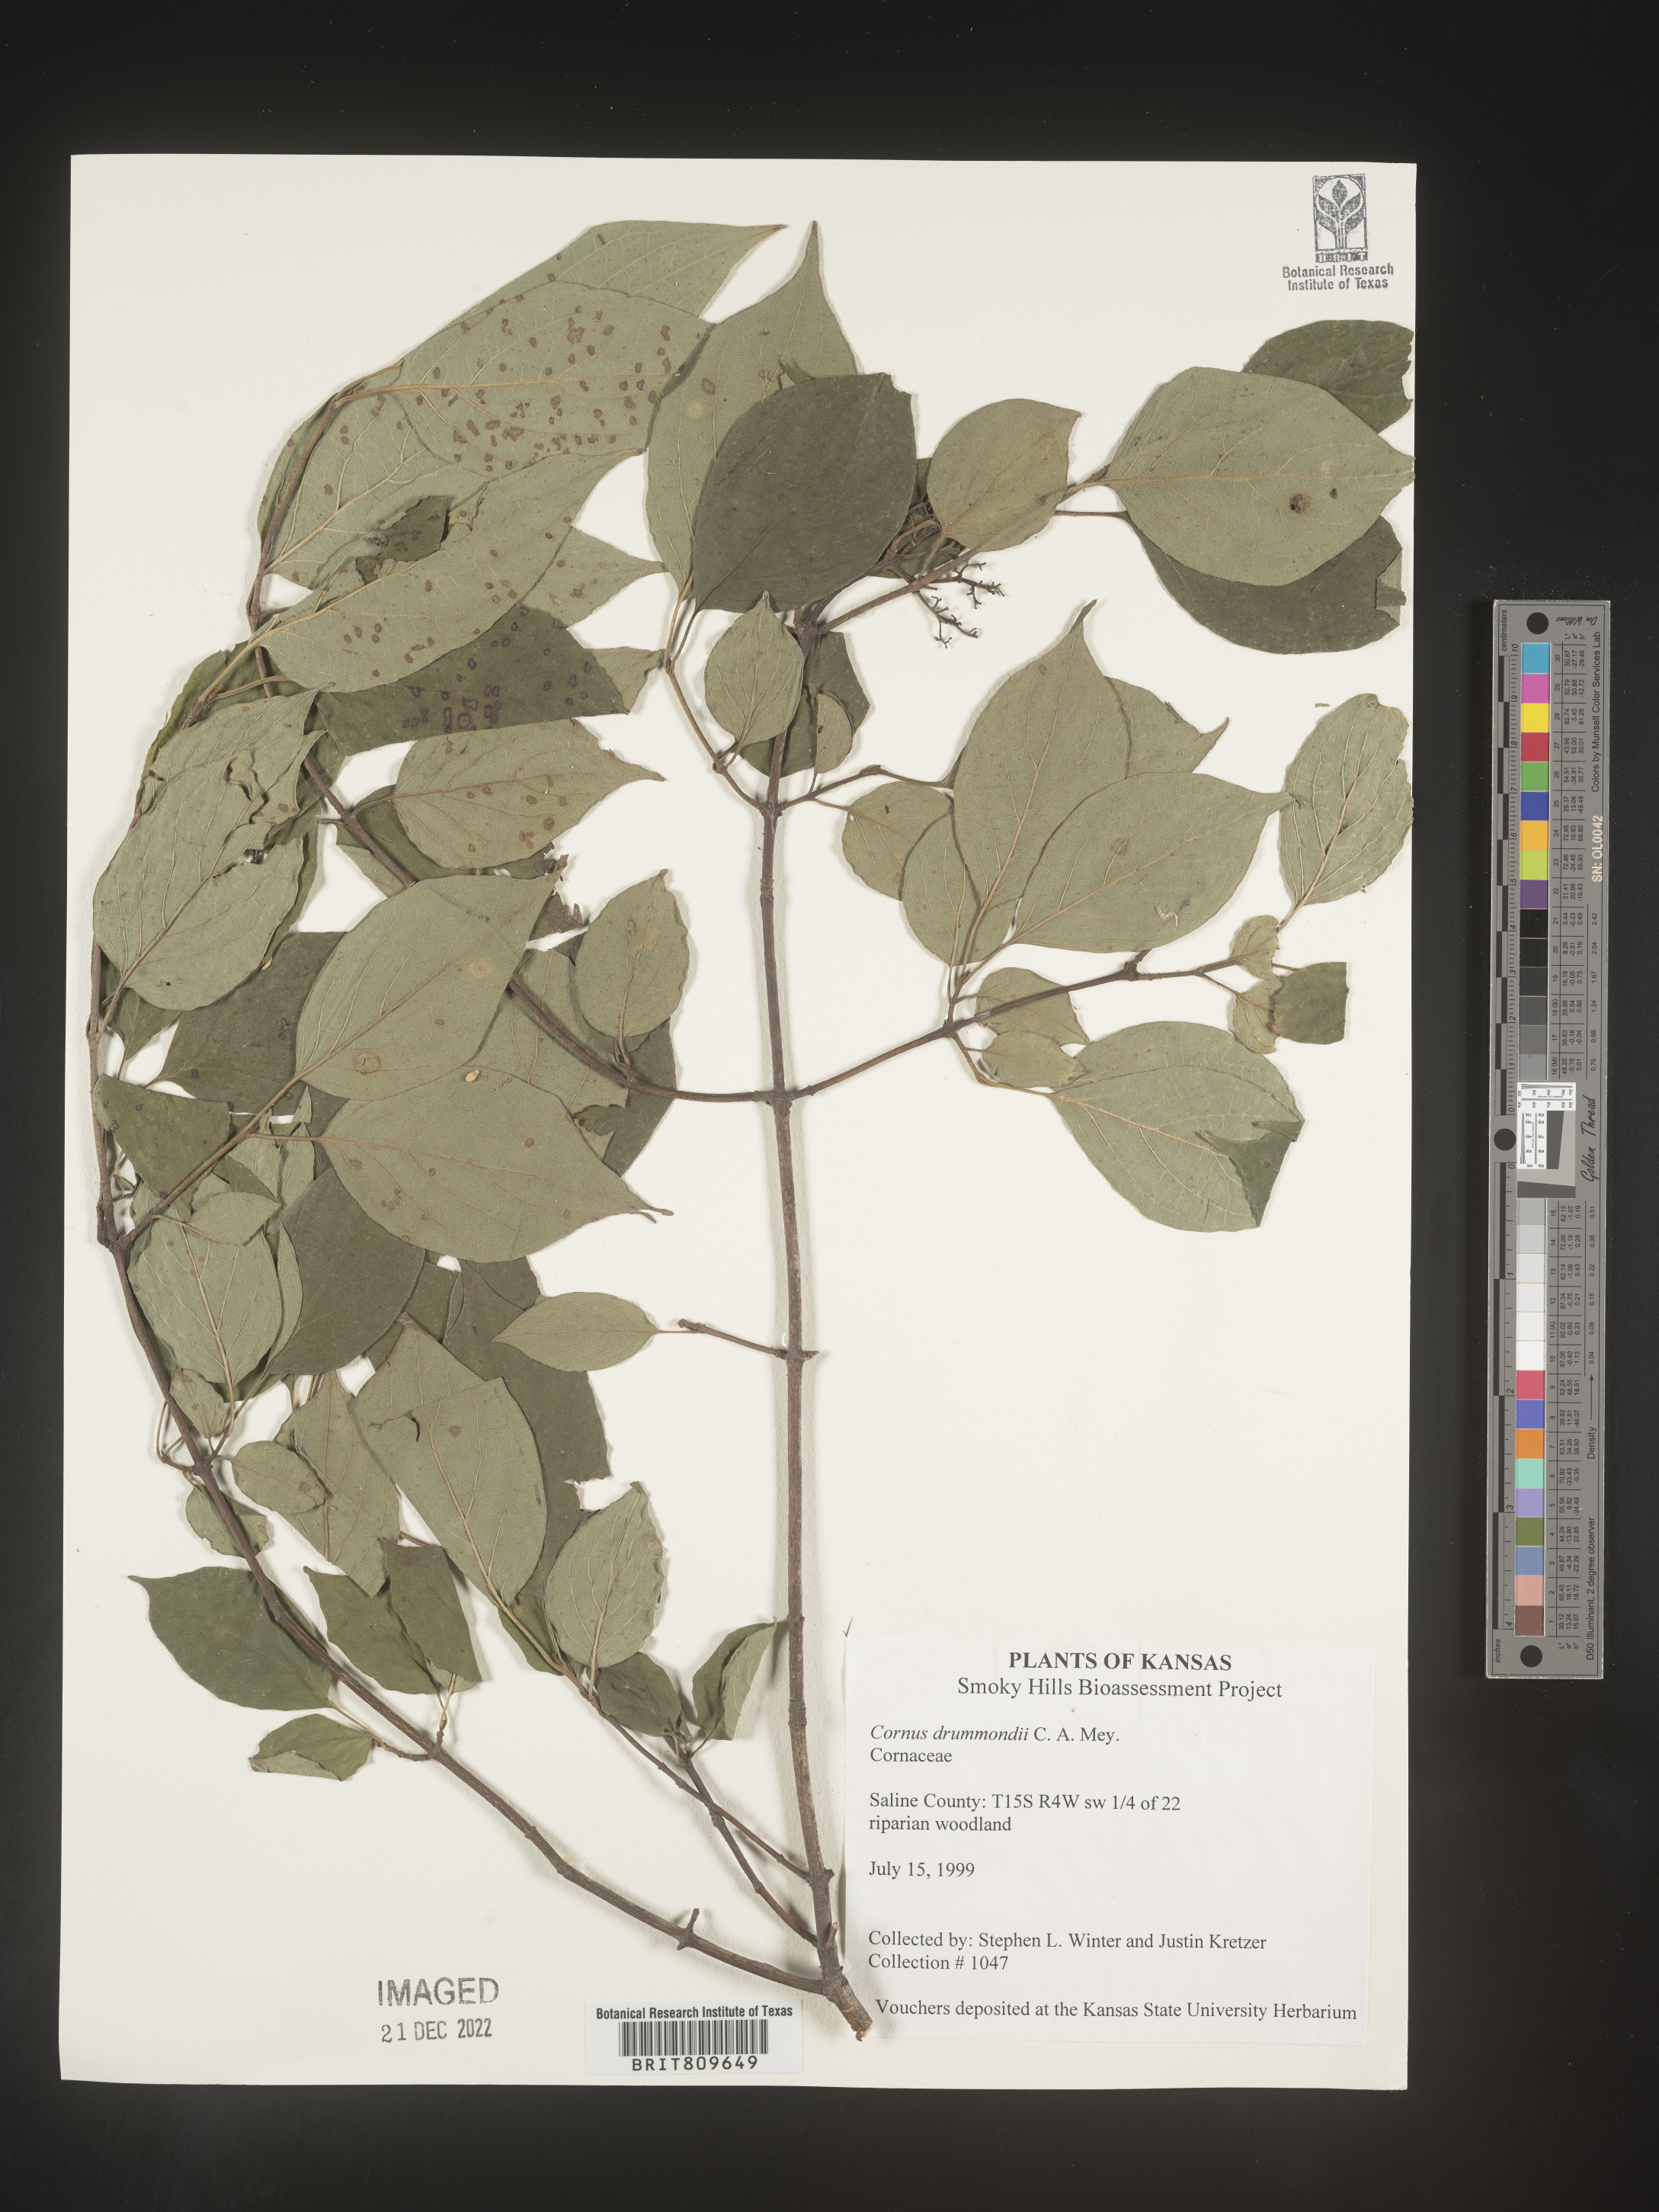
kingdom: Plantae
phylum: Tracheophyta
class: Magnoliopsida
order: Cornales
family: Cornaceae
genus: Cornus
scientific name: Cornus drummondii
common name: Rough-leaf dogwood
